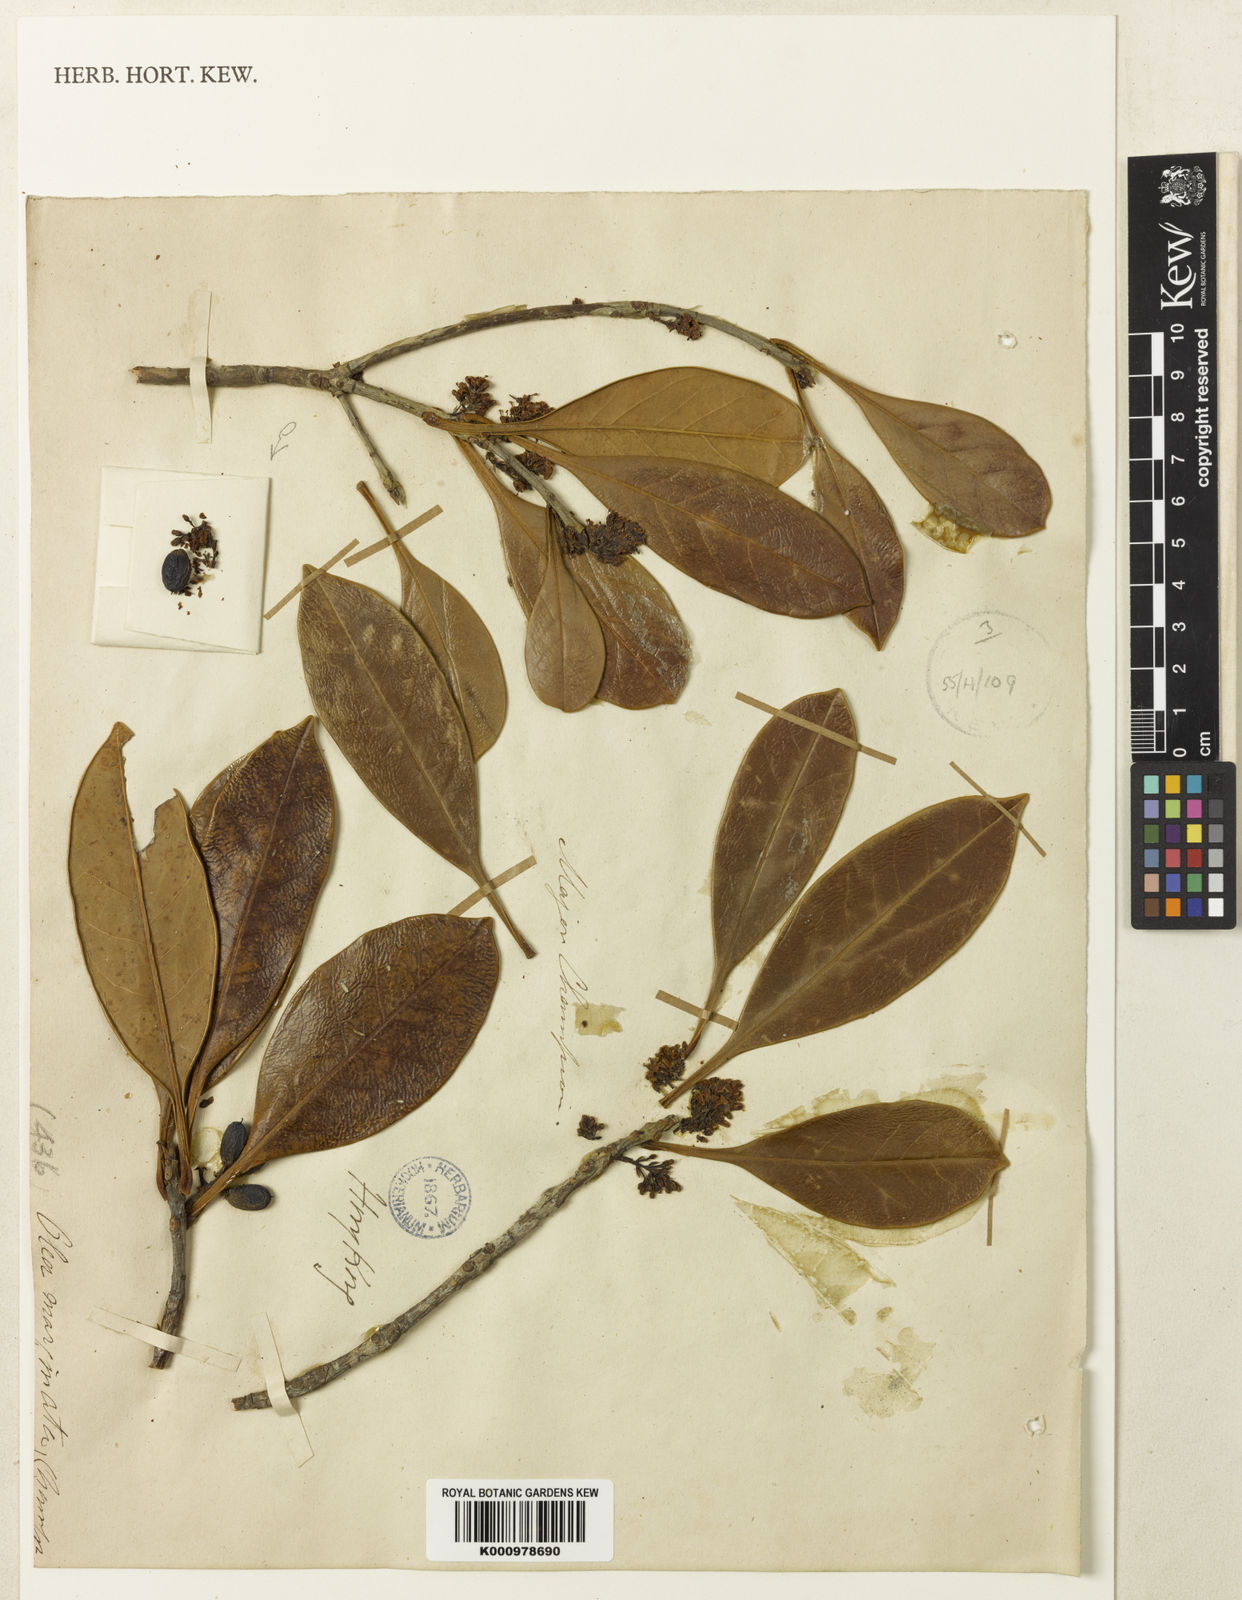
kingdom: Plantae
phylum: Tracheophyta
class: Magnoliopsida
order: Lamiales
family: Oleaceae
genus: Chengiodendron
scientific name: Chengiodendron matsumuranum
